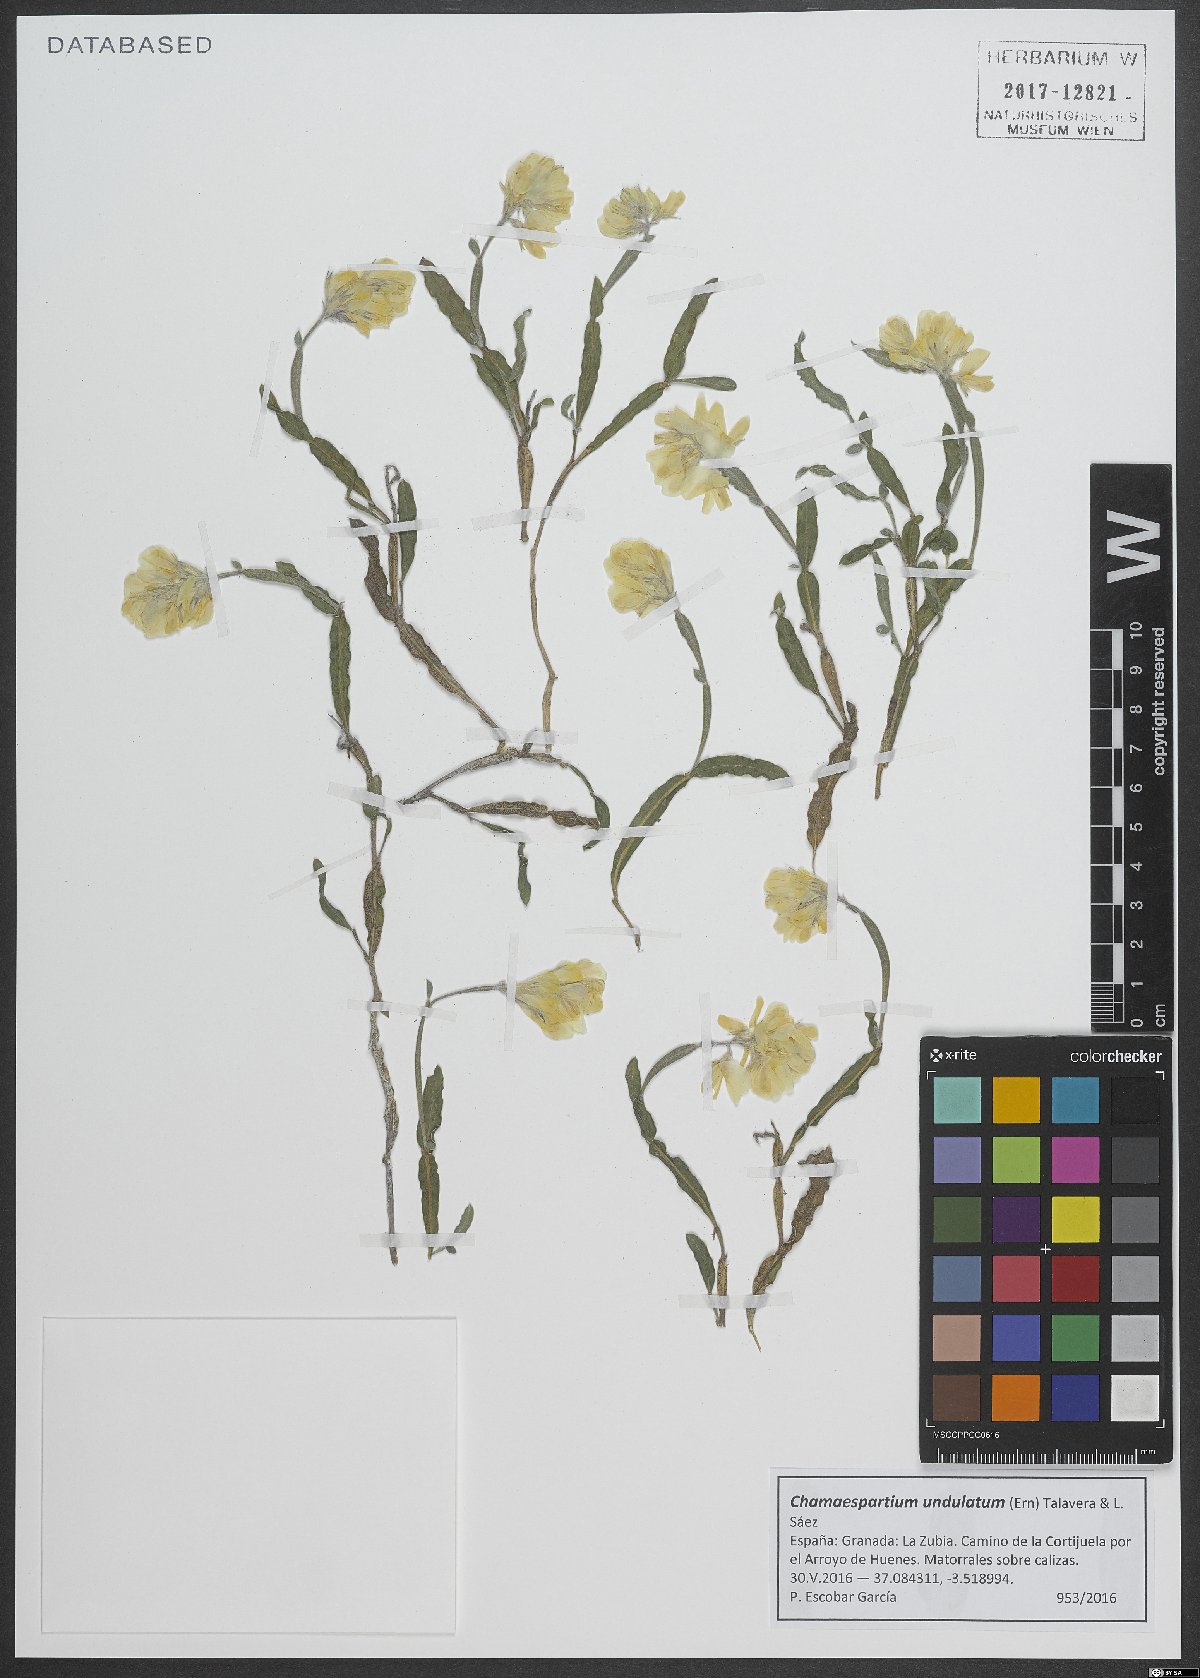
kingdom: Plantae
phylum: Tracheophyta
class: Magnoliopsida
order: Fabales
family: Fabaceae
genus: Genista
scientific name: Genista sagittalis
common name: Winged greenweed
